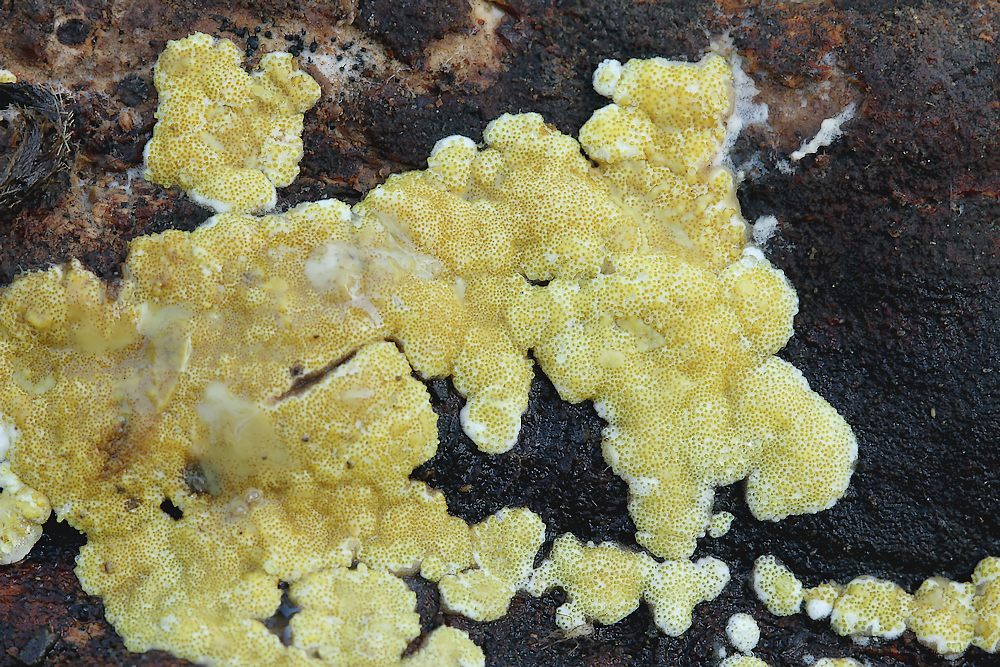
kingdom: Fungi
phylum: Ascomycota
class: Sordariomycetes
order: Hypocreales
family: Hypocreaceae
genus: Trichoderma
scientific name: Trichoderma pulvinatum
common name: snyltende kødkerne
